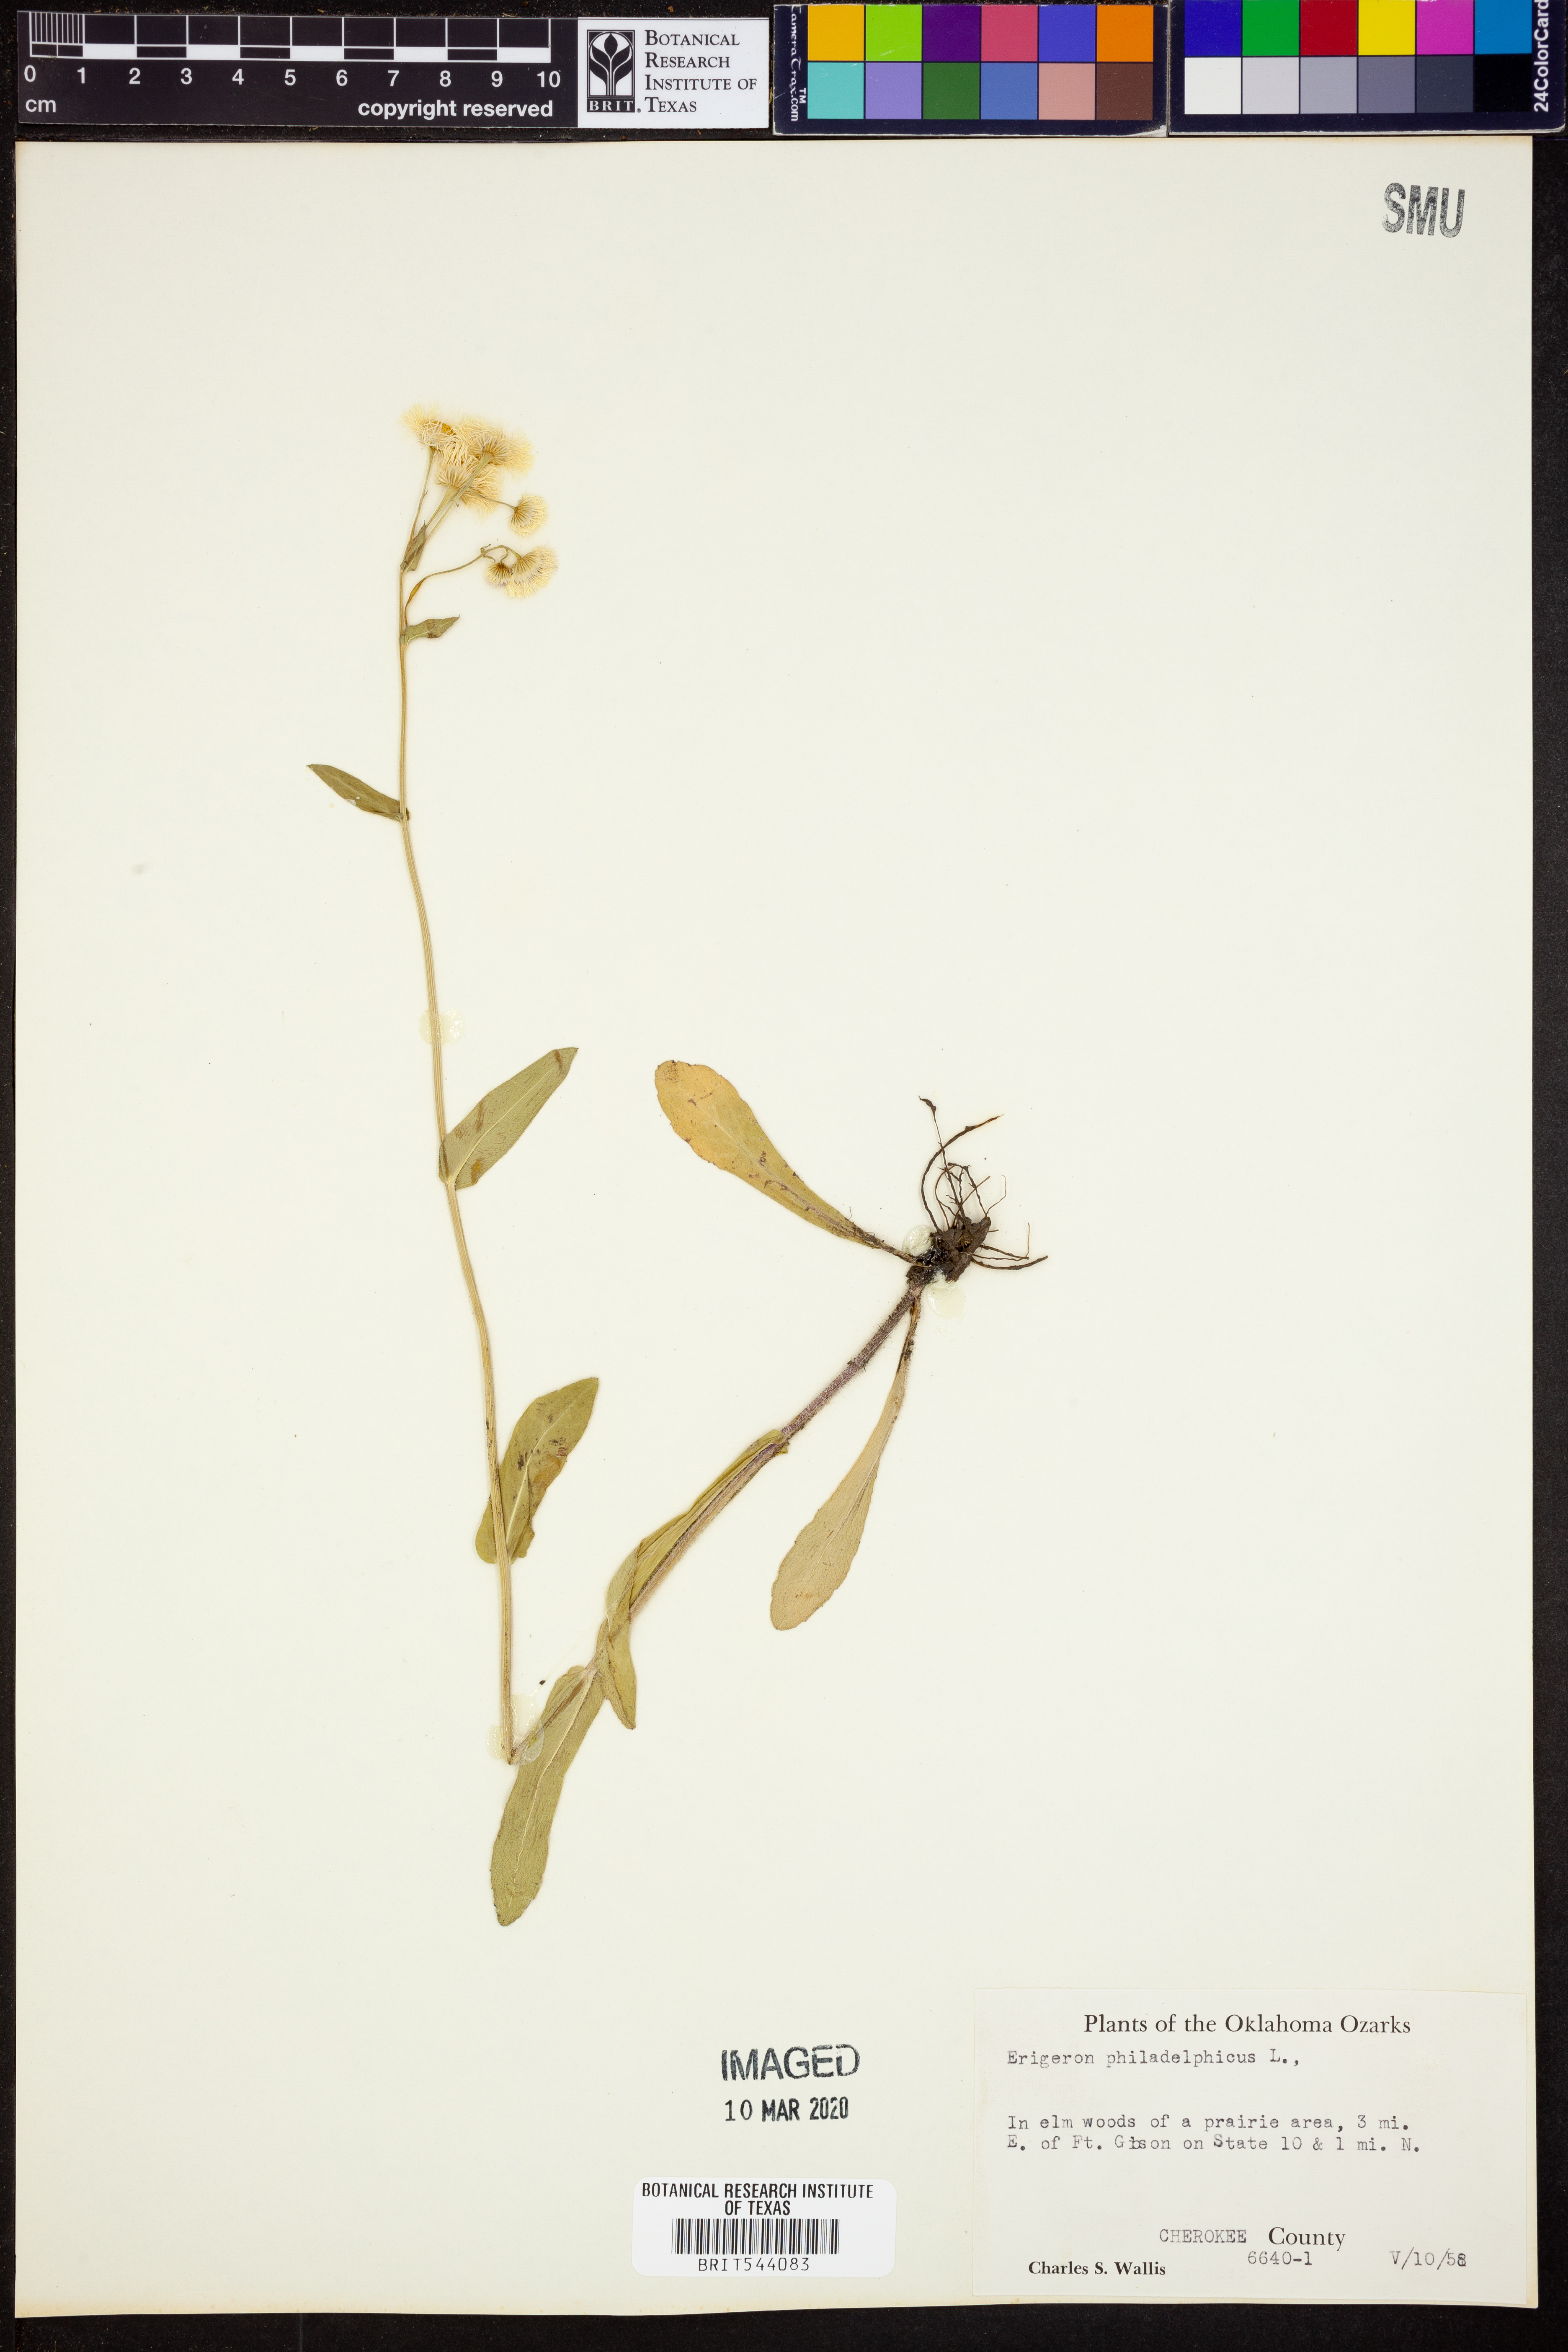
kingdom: Plantae
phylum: Tracheophyta
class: Magnoliopsida
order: Asterales
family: Asteraceae
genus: Erigeron
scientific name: Erigeron philadelphicus
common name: Robin's-plantain
